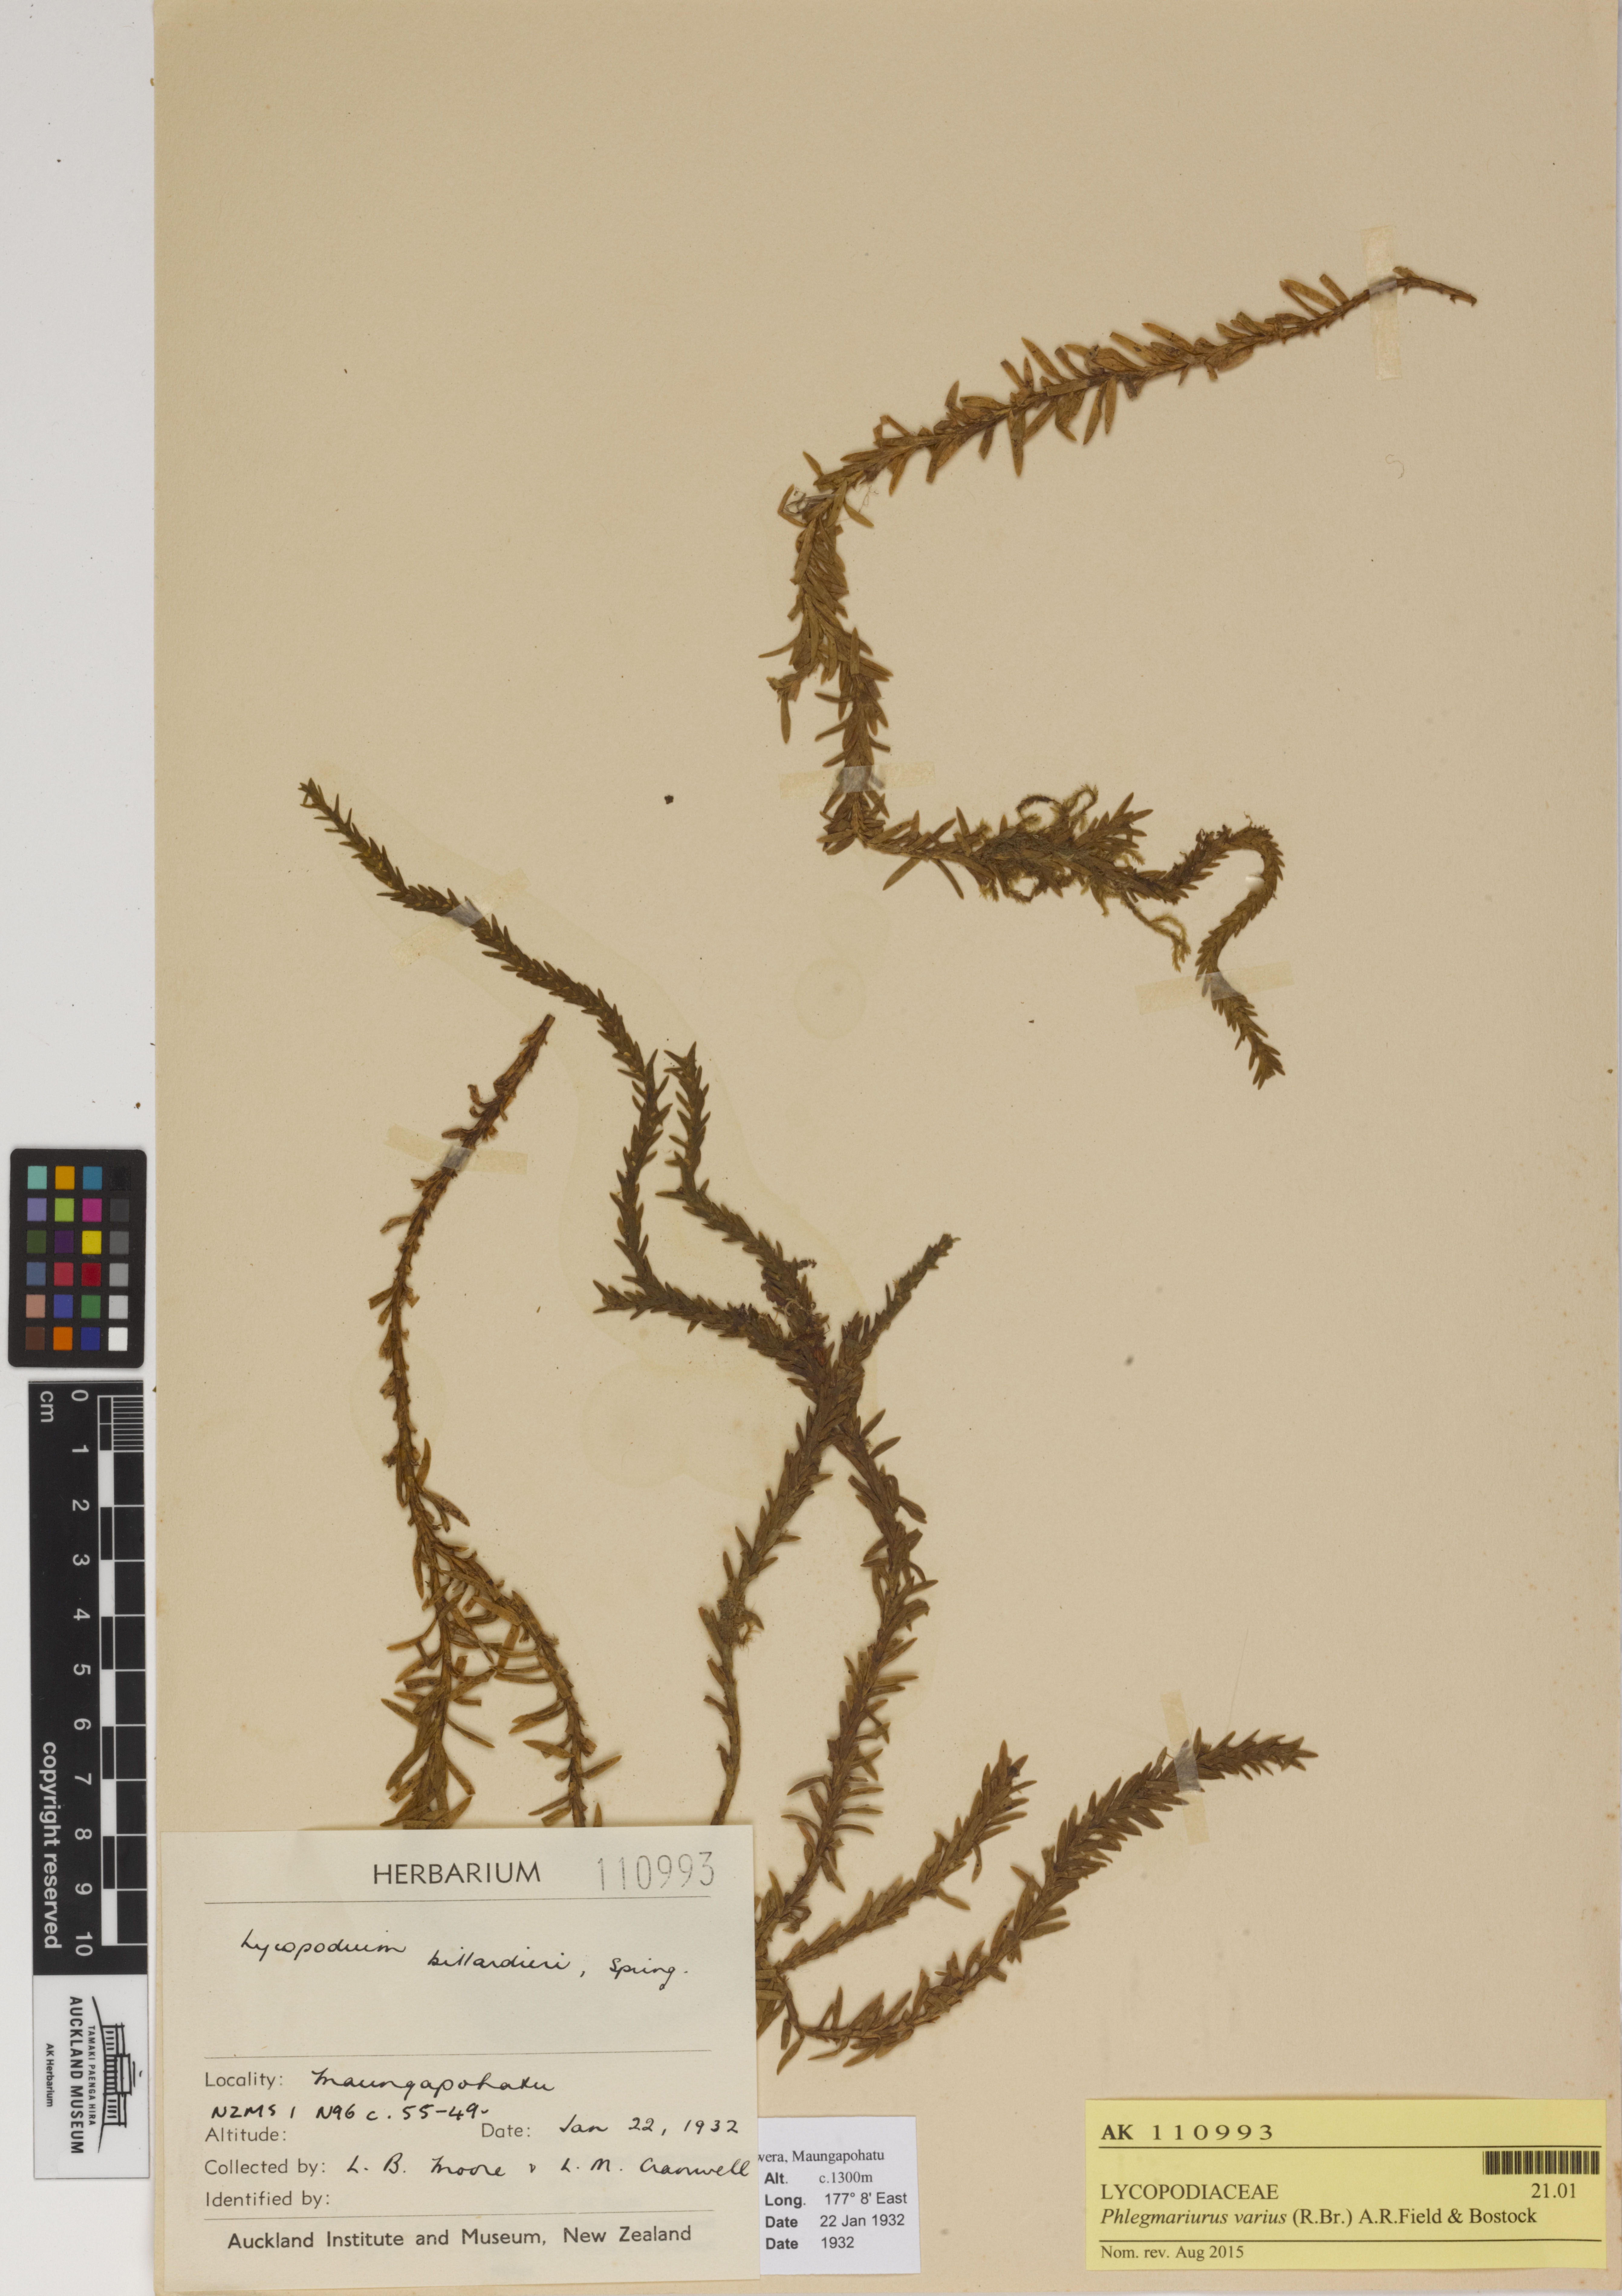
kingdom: Plantae
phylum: Tracheophyta
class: Lycopodiopsida
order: Lycopodiales
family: Lycopodiaceae
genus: Phlegmariurus
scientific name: Phlegmariurus varius
